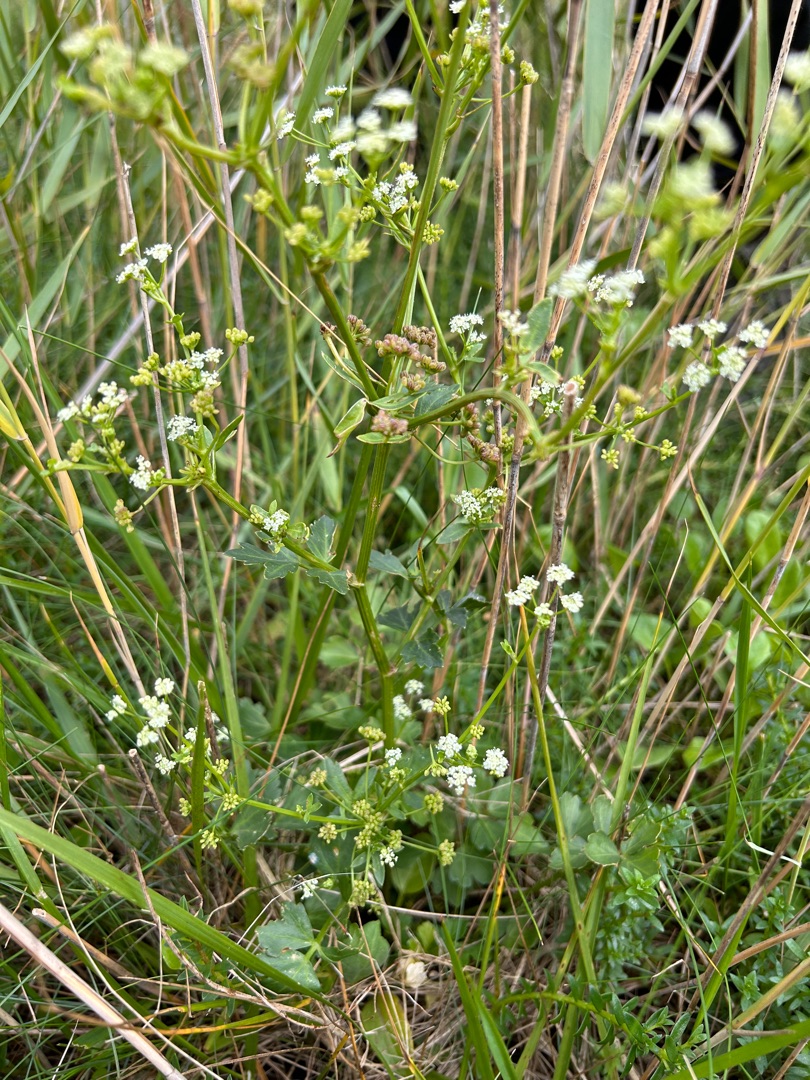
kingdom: Plantae
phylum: Tracheophyta
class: Magnoliopsida
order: Apiales
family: Apiaceae
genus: Apium
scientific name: Apium graveolens
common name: Vild selleri
